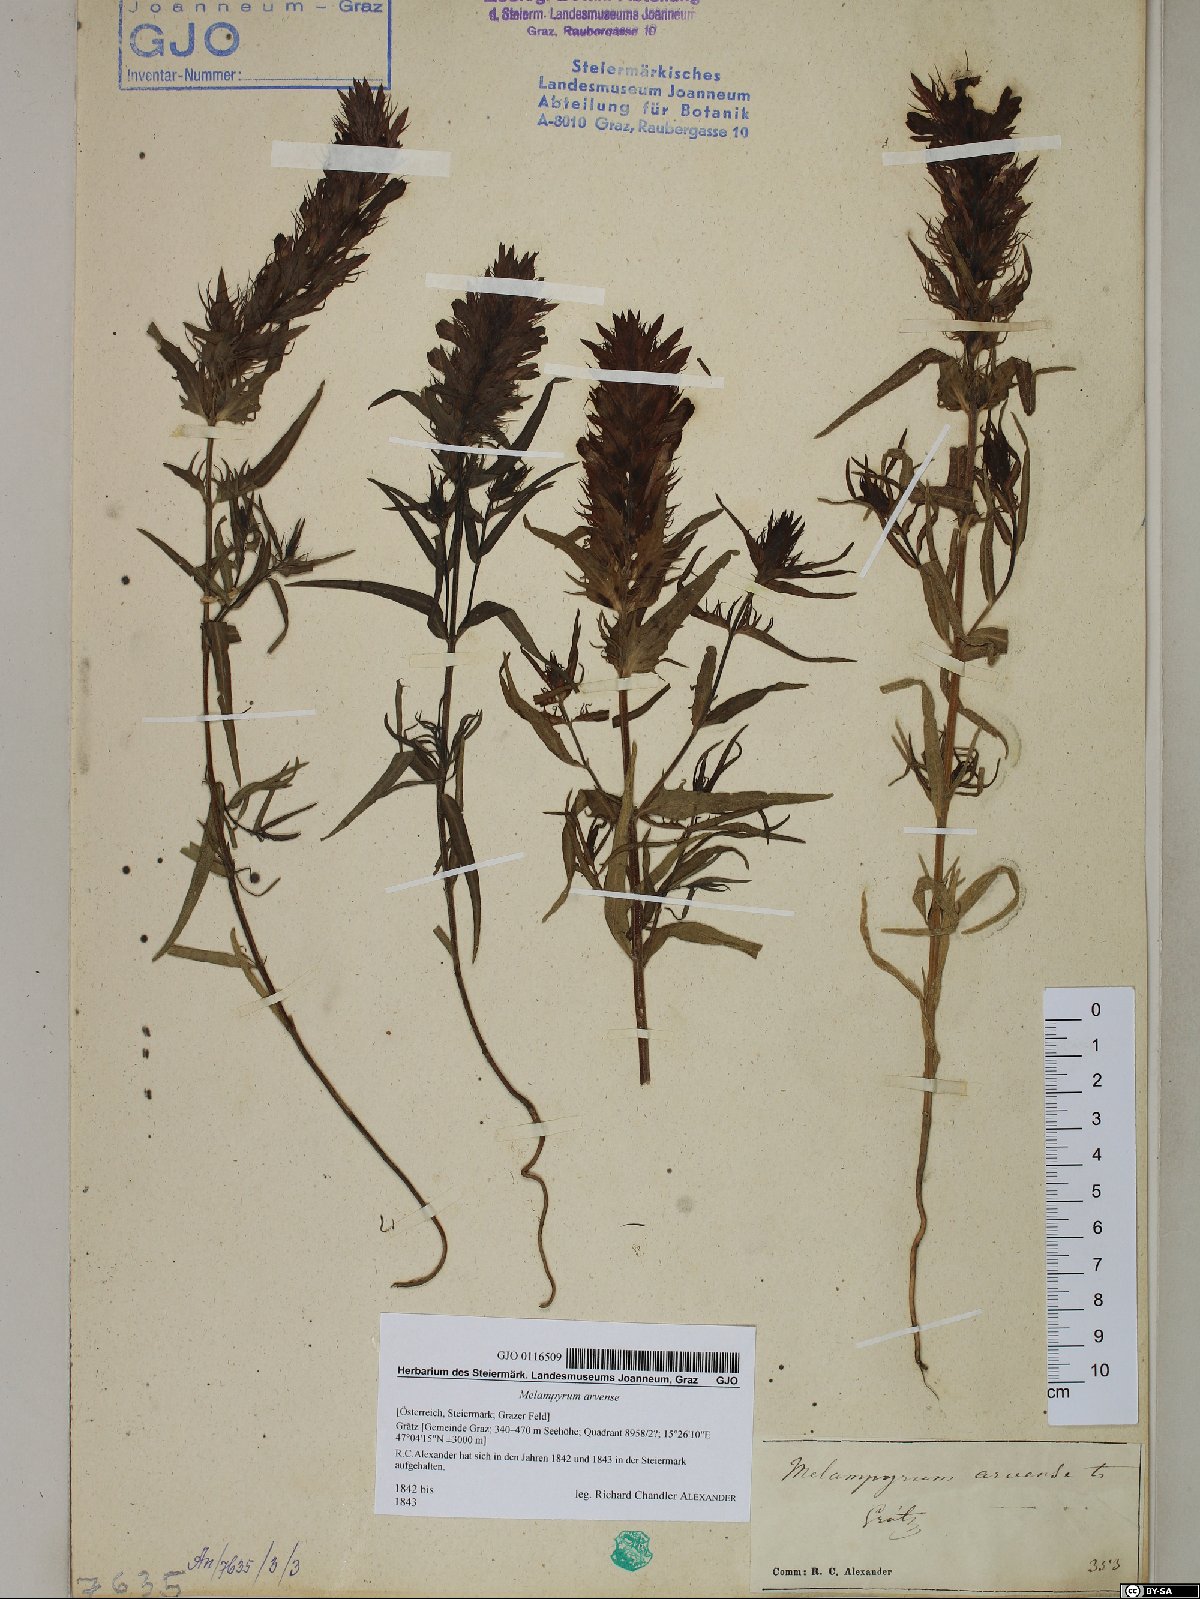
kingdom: Plantae
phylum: Tracheophyta
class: Magnoliopsida
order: Lamiales
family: Orobanchaceae
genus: Melampyrum
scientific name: Melampyrum arvense
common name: Field cow-wheat
